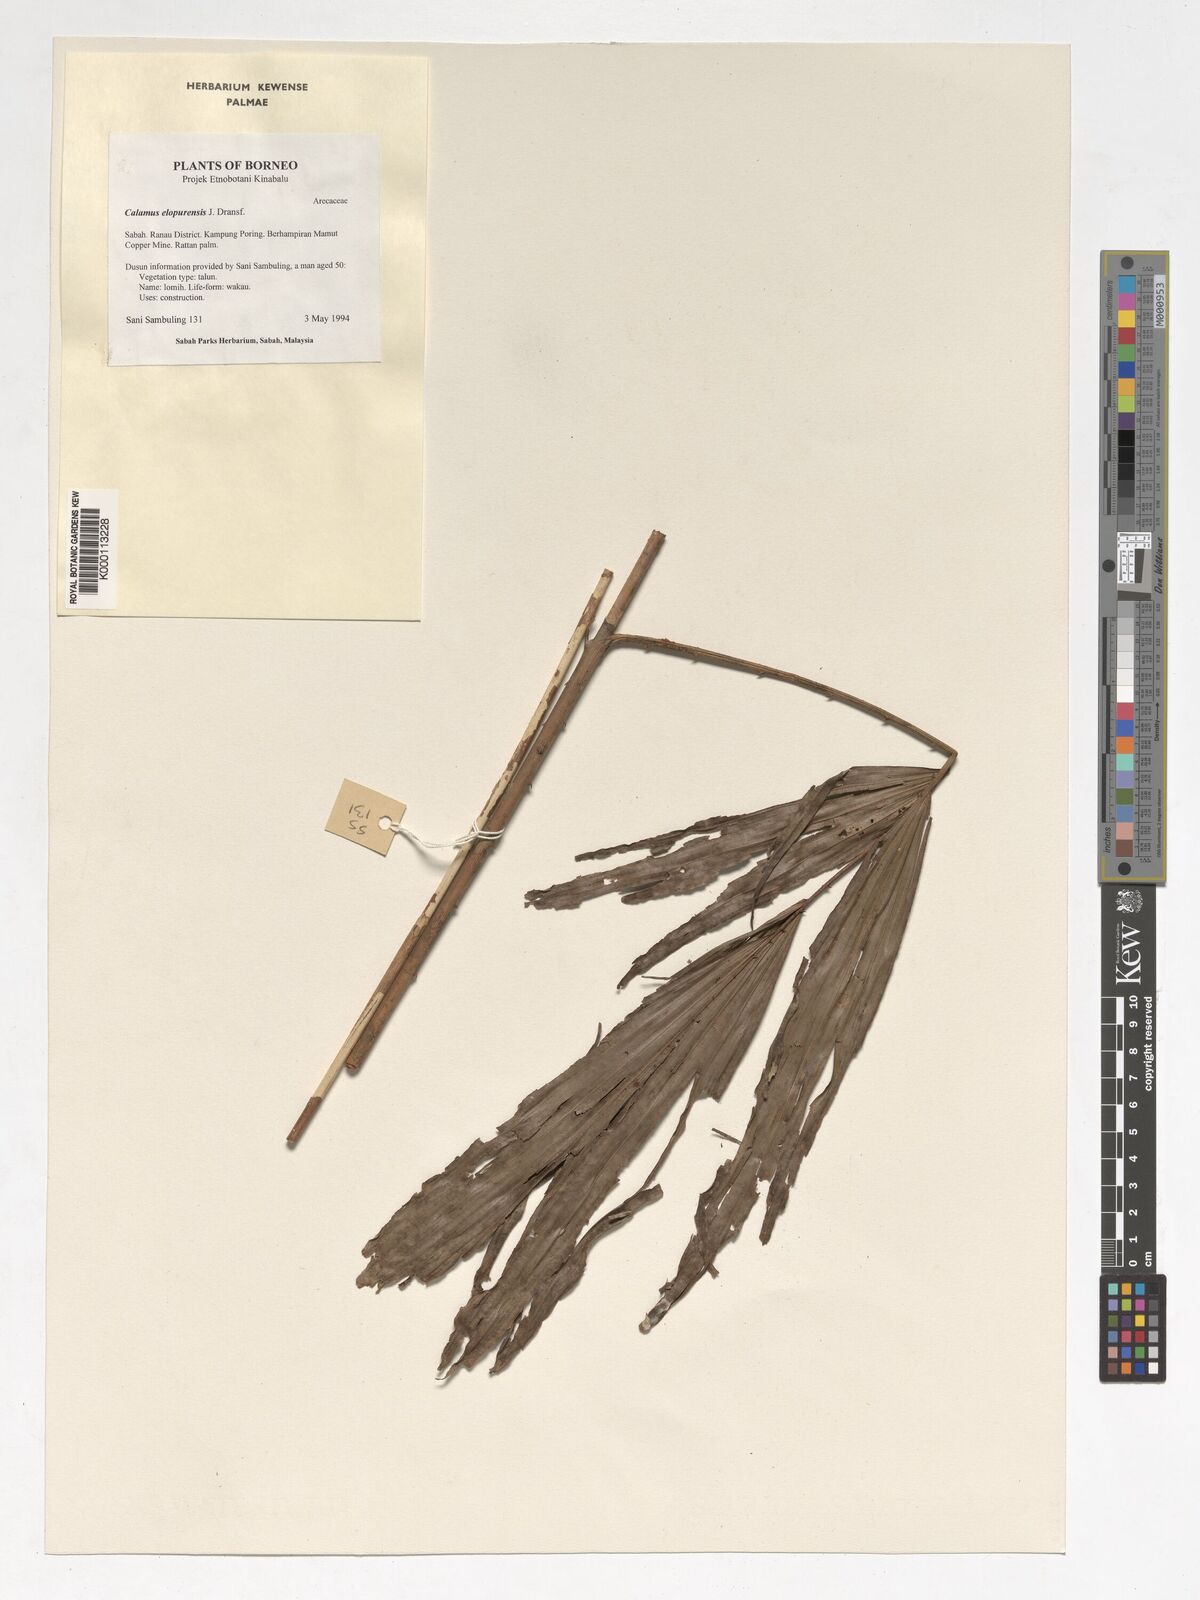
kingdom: Plantae
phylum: Tracheophyta
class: Liliopsida
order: Arecales
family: Arecaceae
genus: Calamus
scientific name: Calamus javensis
